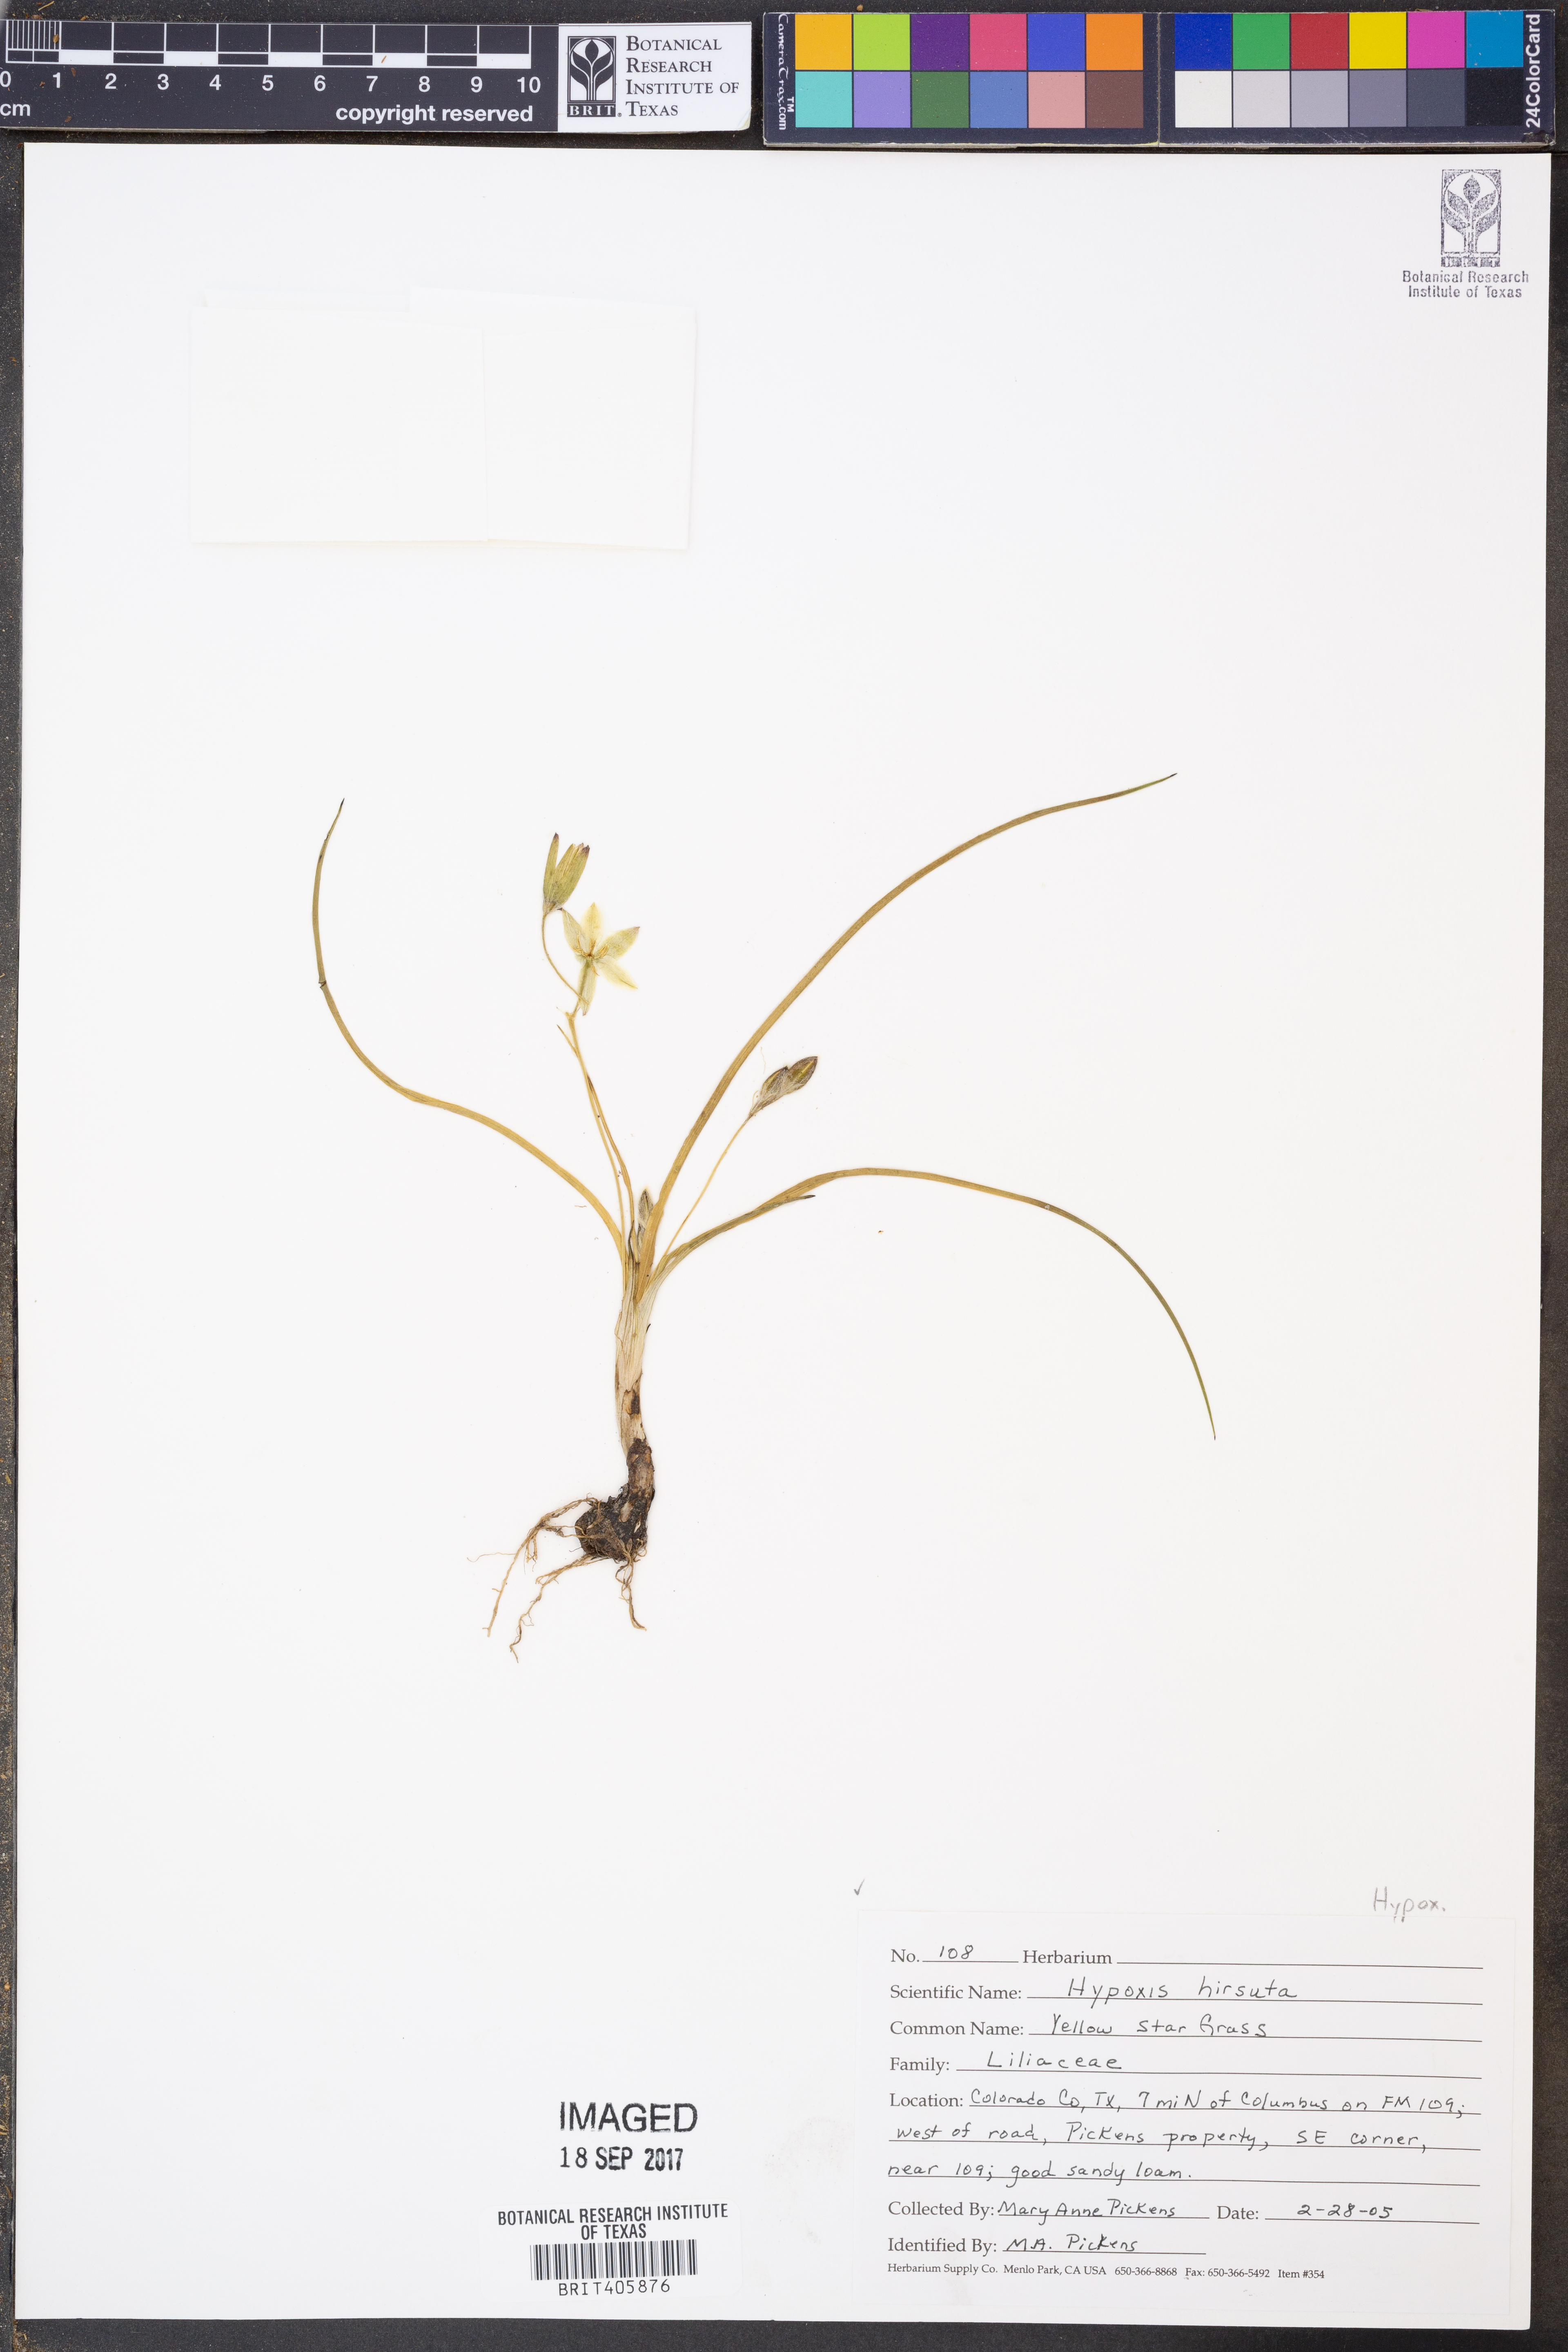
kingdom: Plantae
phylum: Tracheophyta
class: Liliopsida
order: Asparagales
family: Hypoxidaceae
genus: Hypoxis
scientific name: Hypoxis hirsuta
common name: Common goldstar
